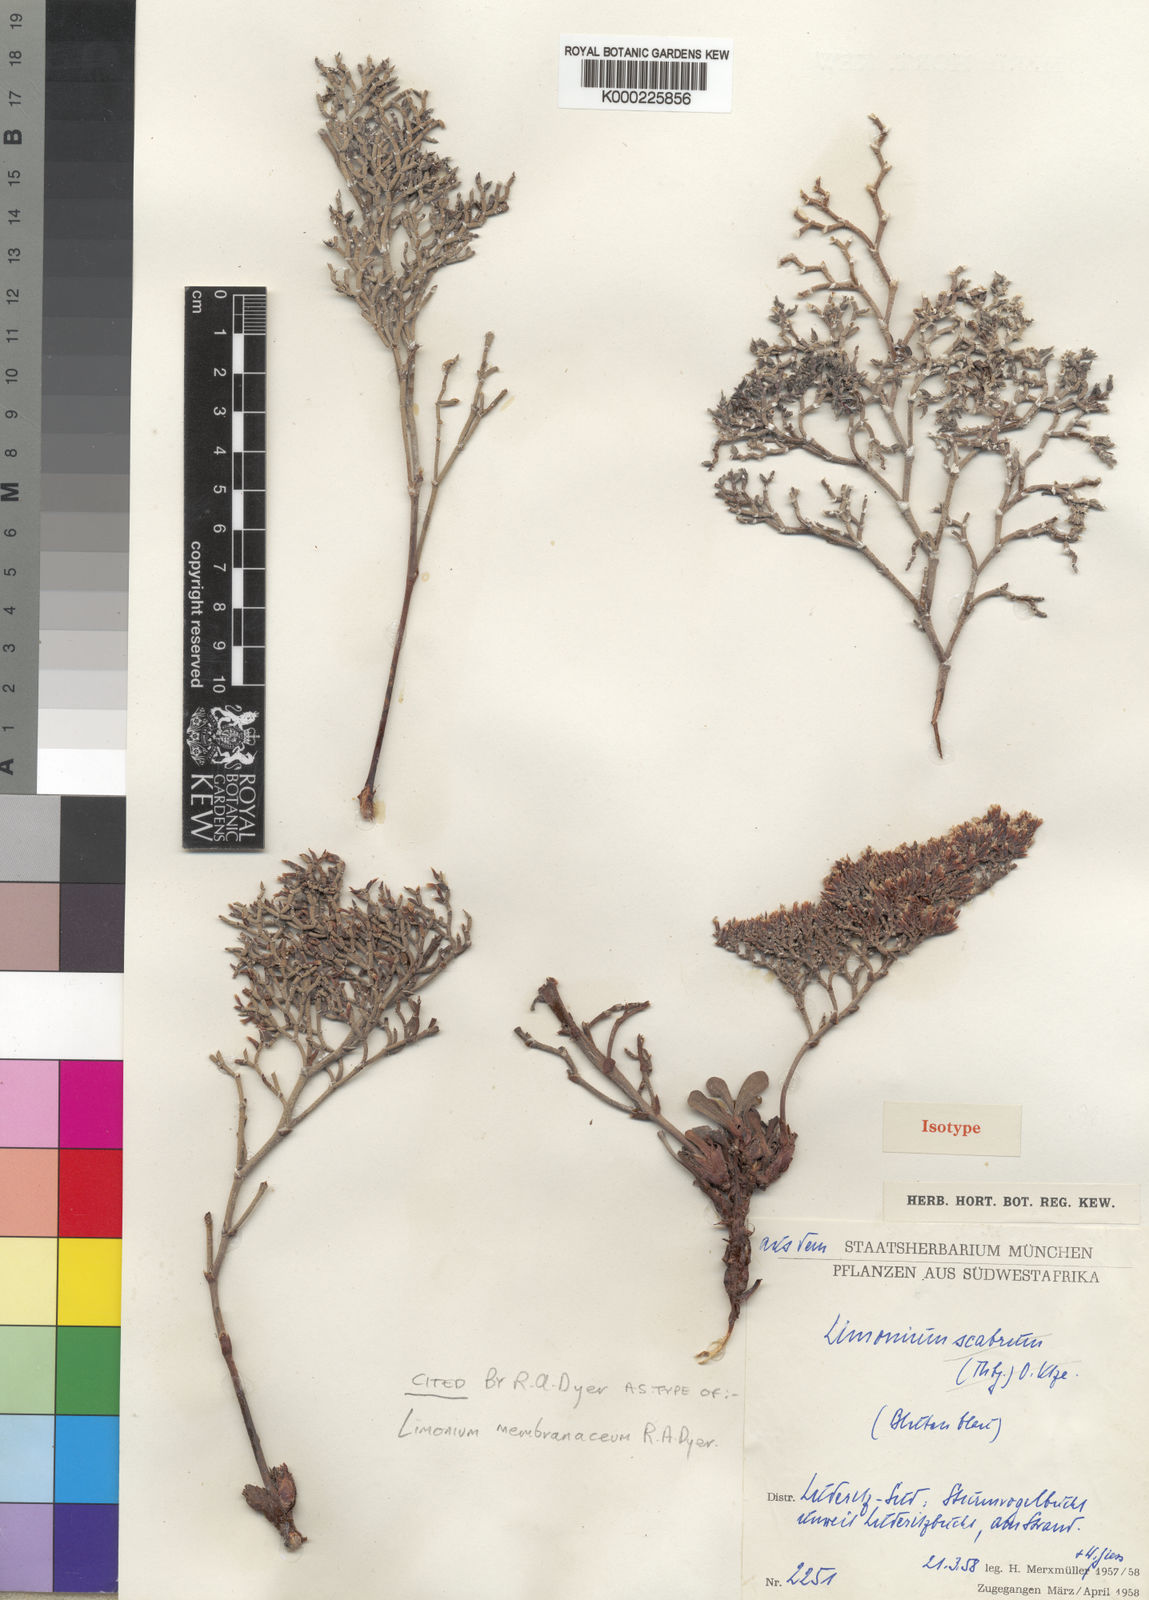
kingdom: Plantae
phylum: Tracheophyta
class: Magnoliopsida
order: Caryophyllales
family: Plumbaginaceae
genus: Limonium
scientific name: Limonium dyeri
